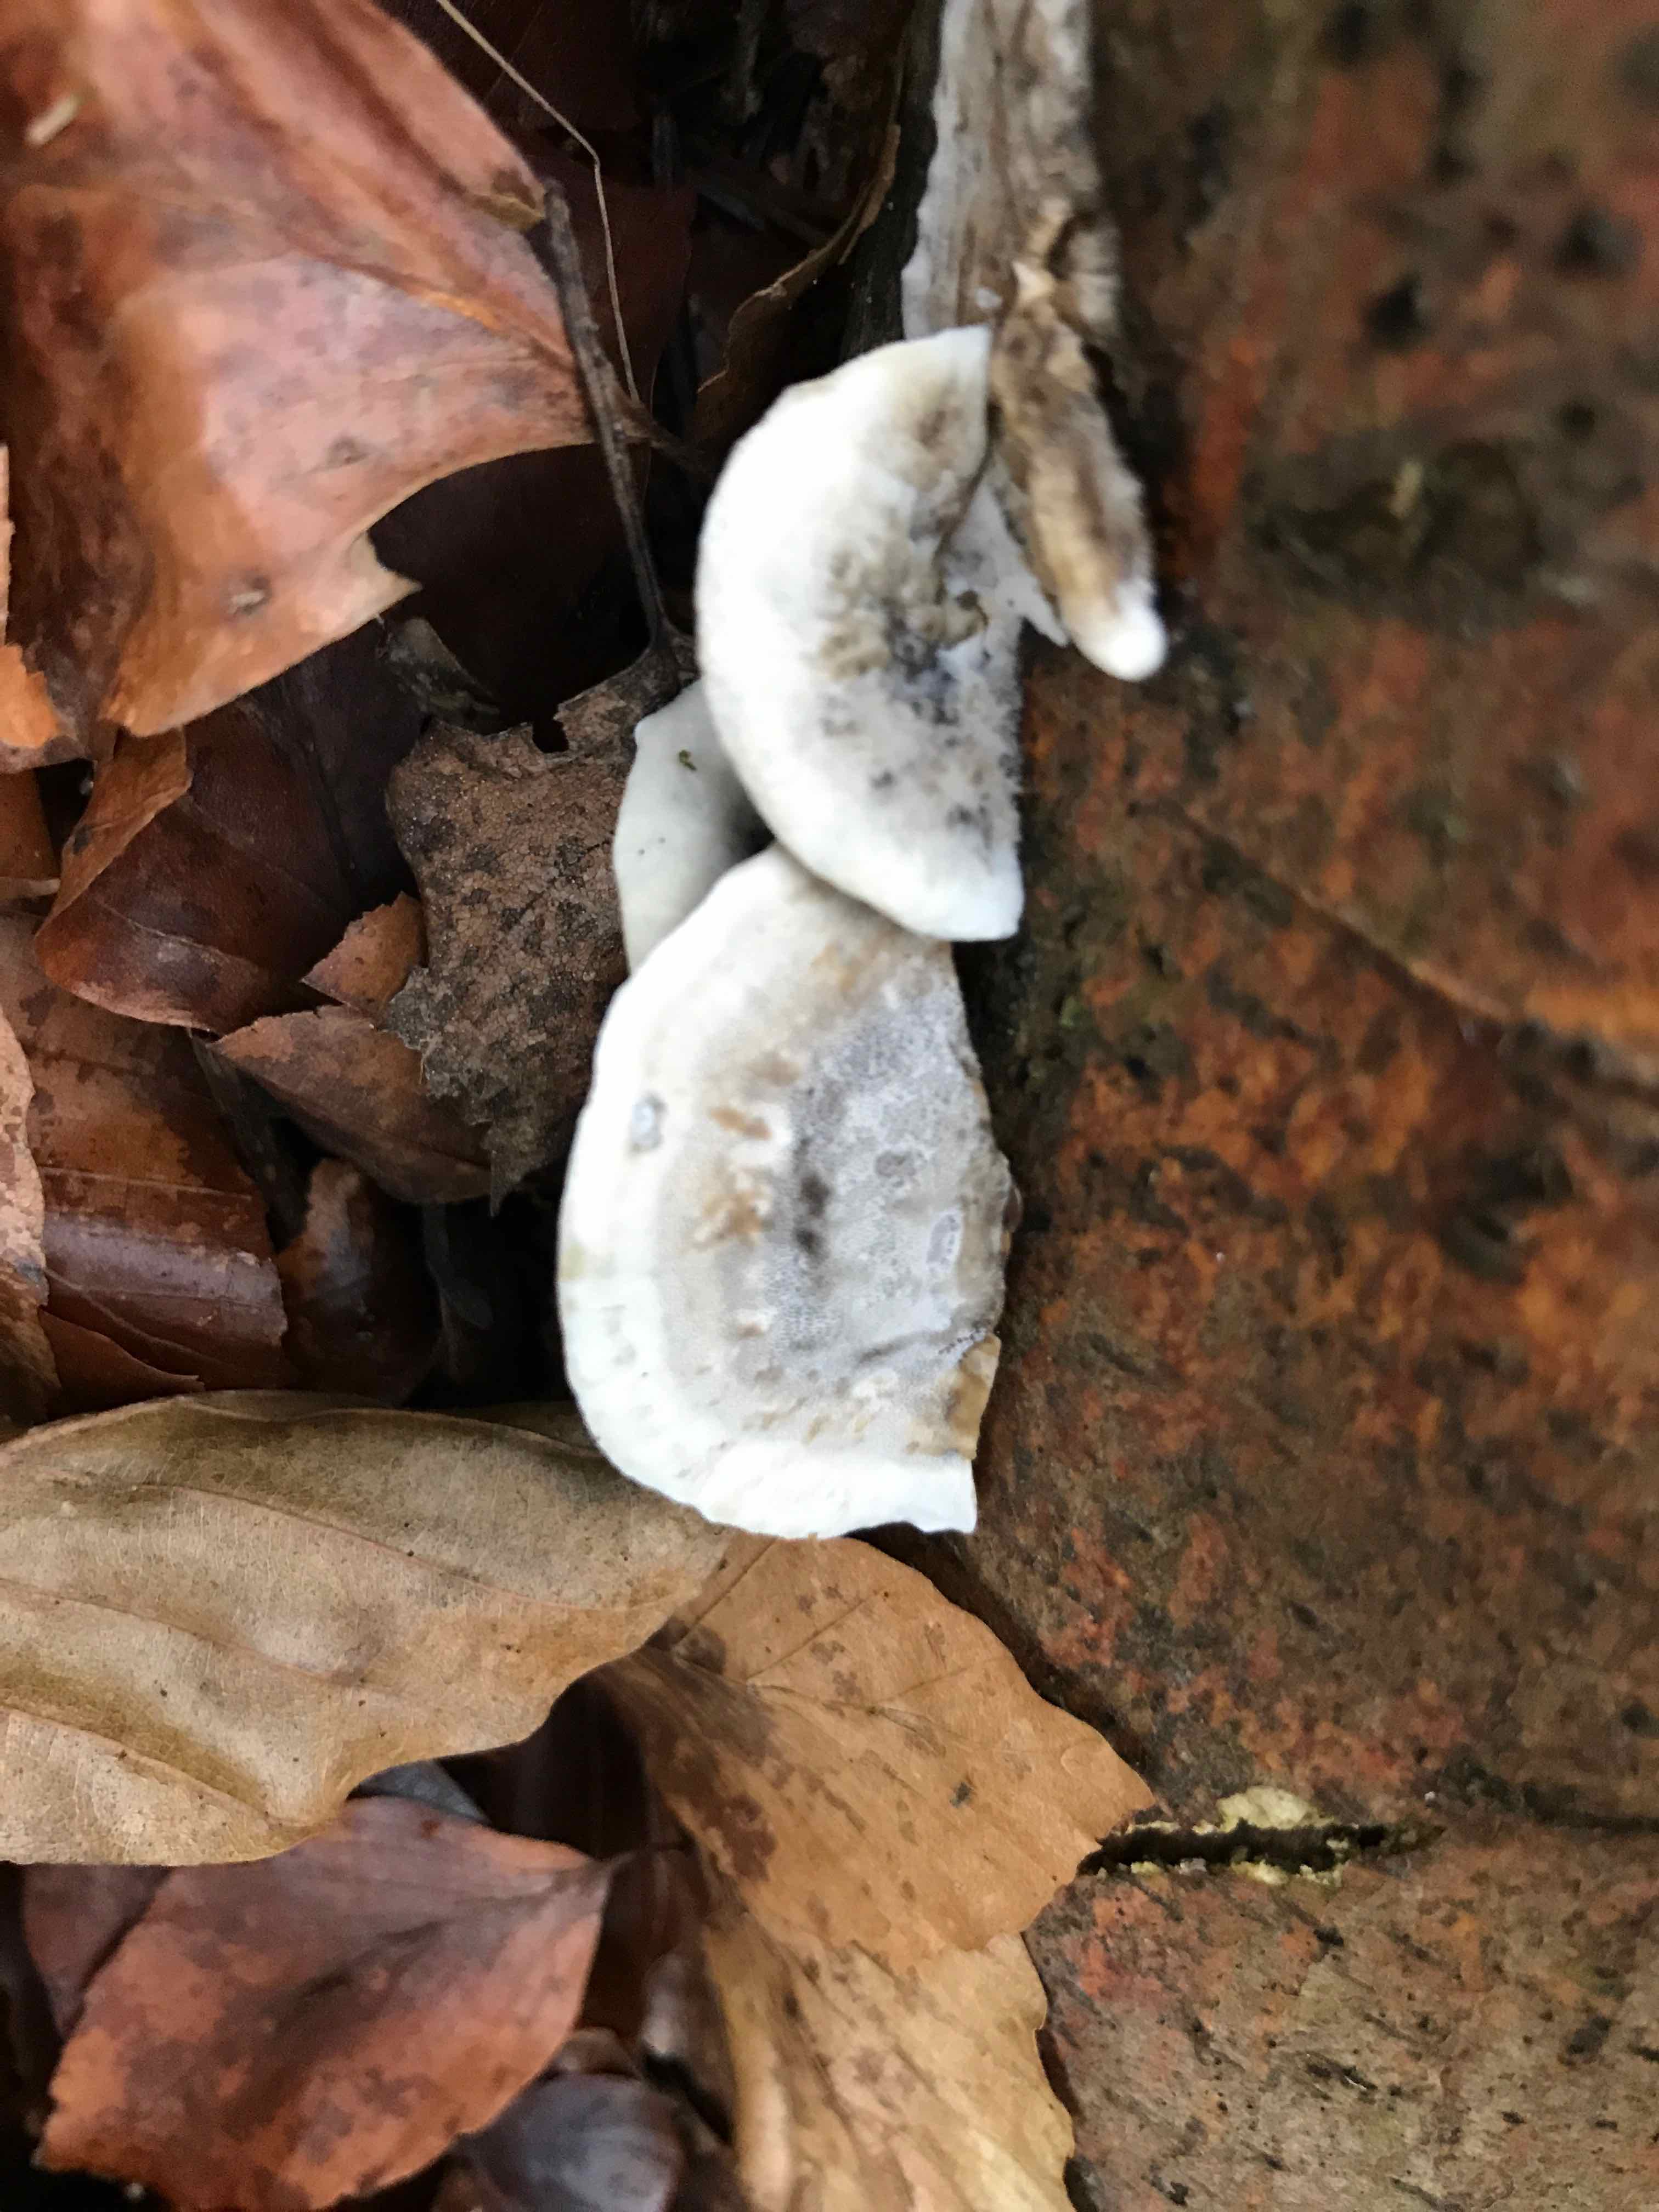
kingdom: Fungi
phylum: Basidiomycota
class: Agaricomycetes
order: Polyporales
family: Phanerochaetaceae
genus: Bjerkandera
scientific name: Bjerkandera adusta
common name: sveden sodporesvamp
